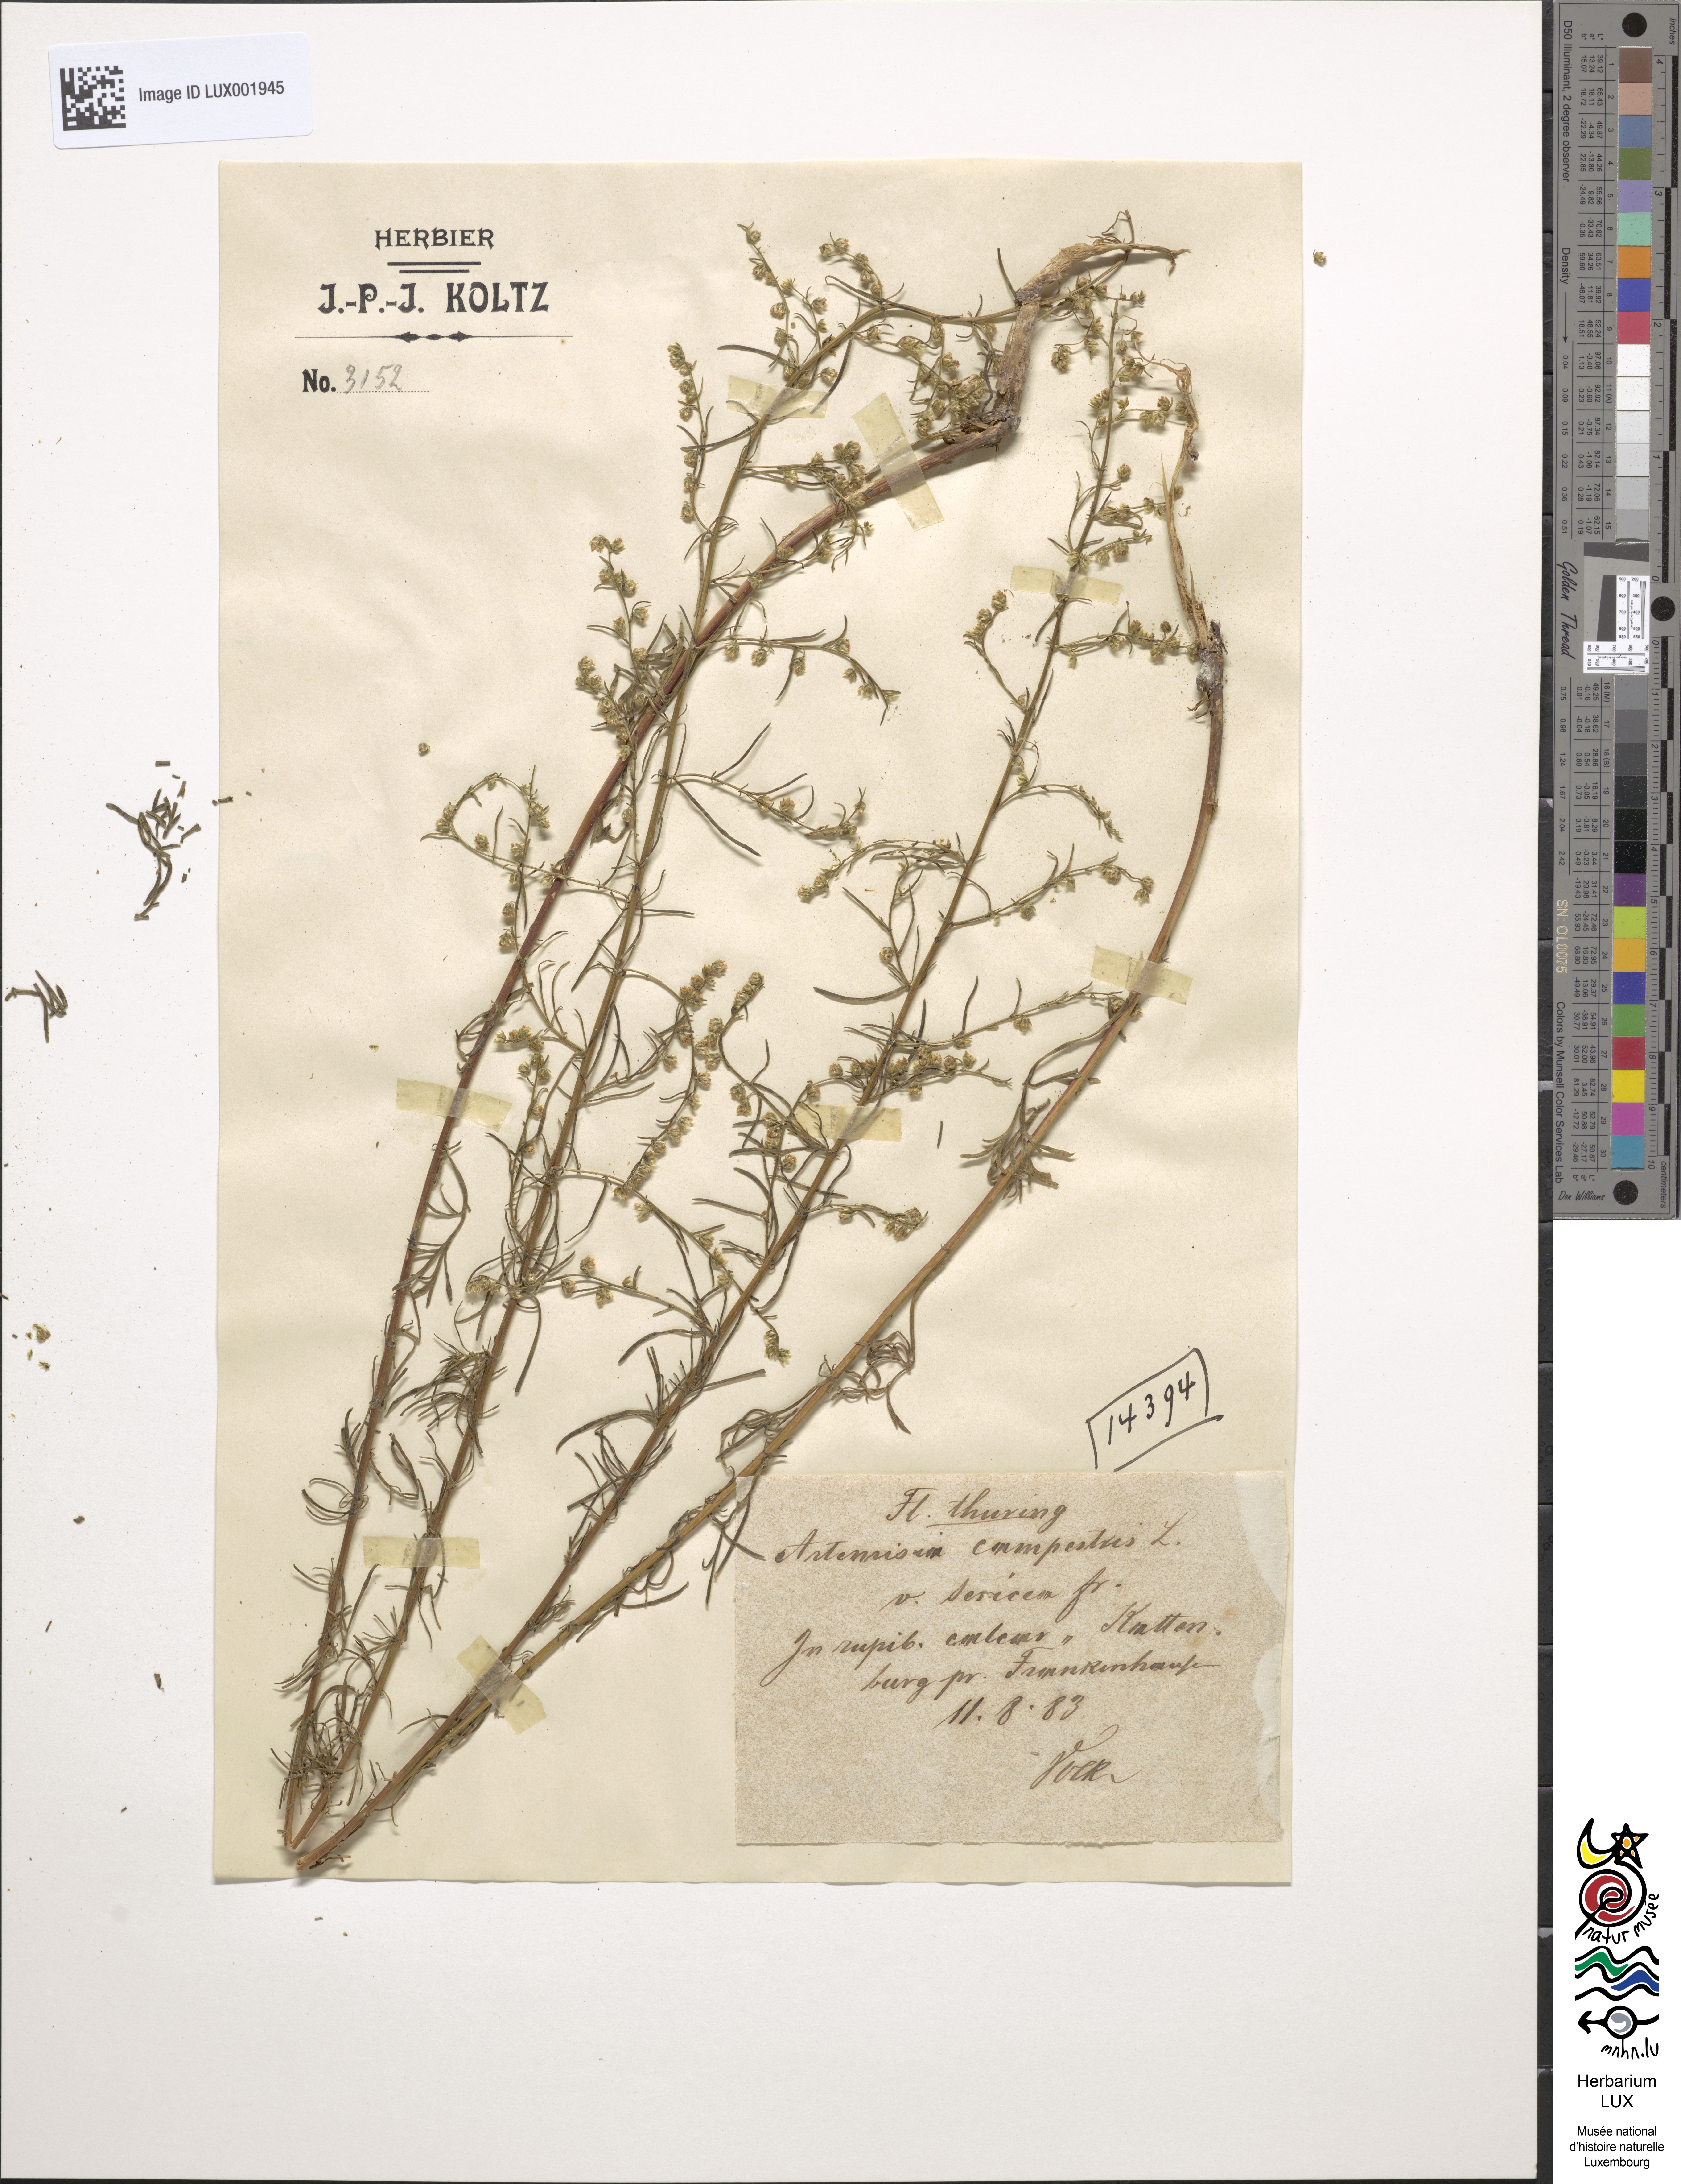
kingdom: Plantae
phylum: Tracheophyta
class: Magnoliopsida
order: Asterales
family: Asteraceae
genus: Artemisia
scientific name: Artemisia campestris
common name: Field wormwood
